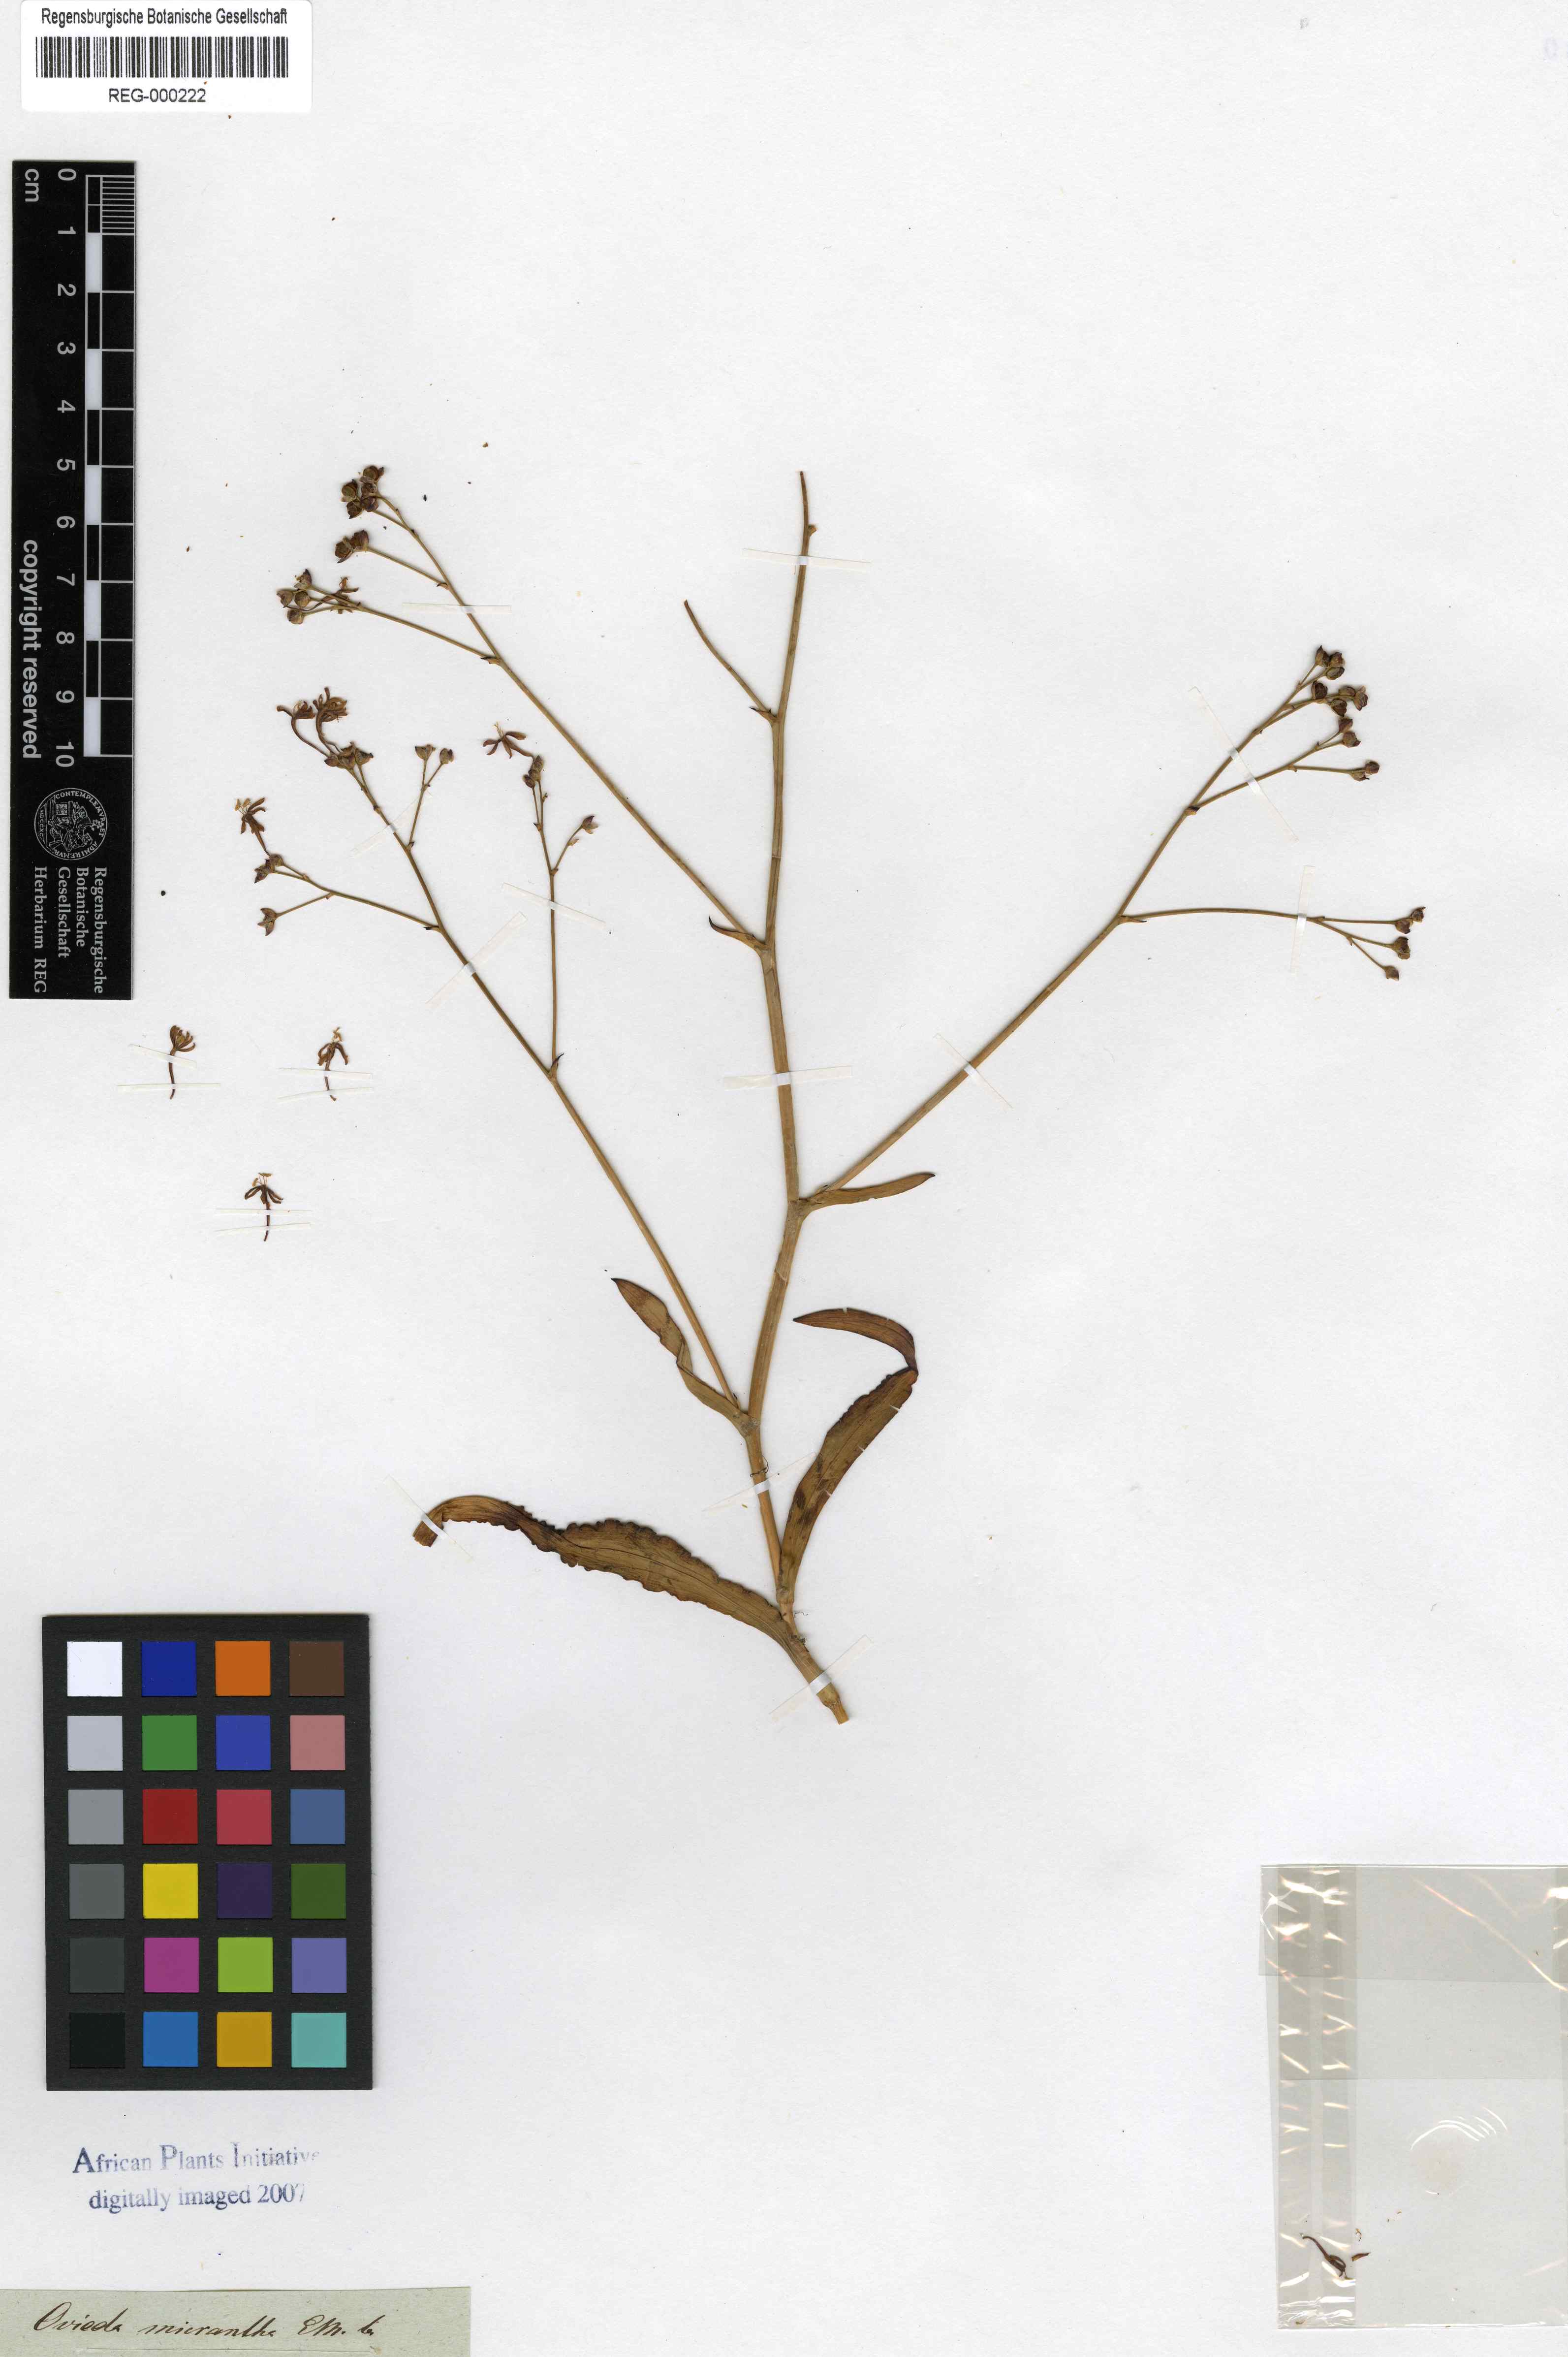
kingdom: Plantae
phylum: Tracheophyta
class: Liliopsida
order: Asparagales
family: Iridaceae
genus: Codonorhiza
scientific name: Codonorhiza micrantha
